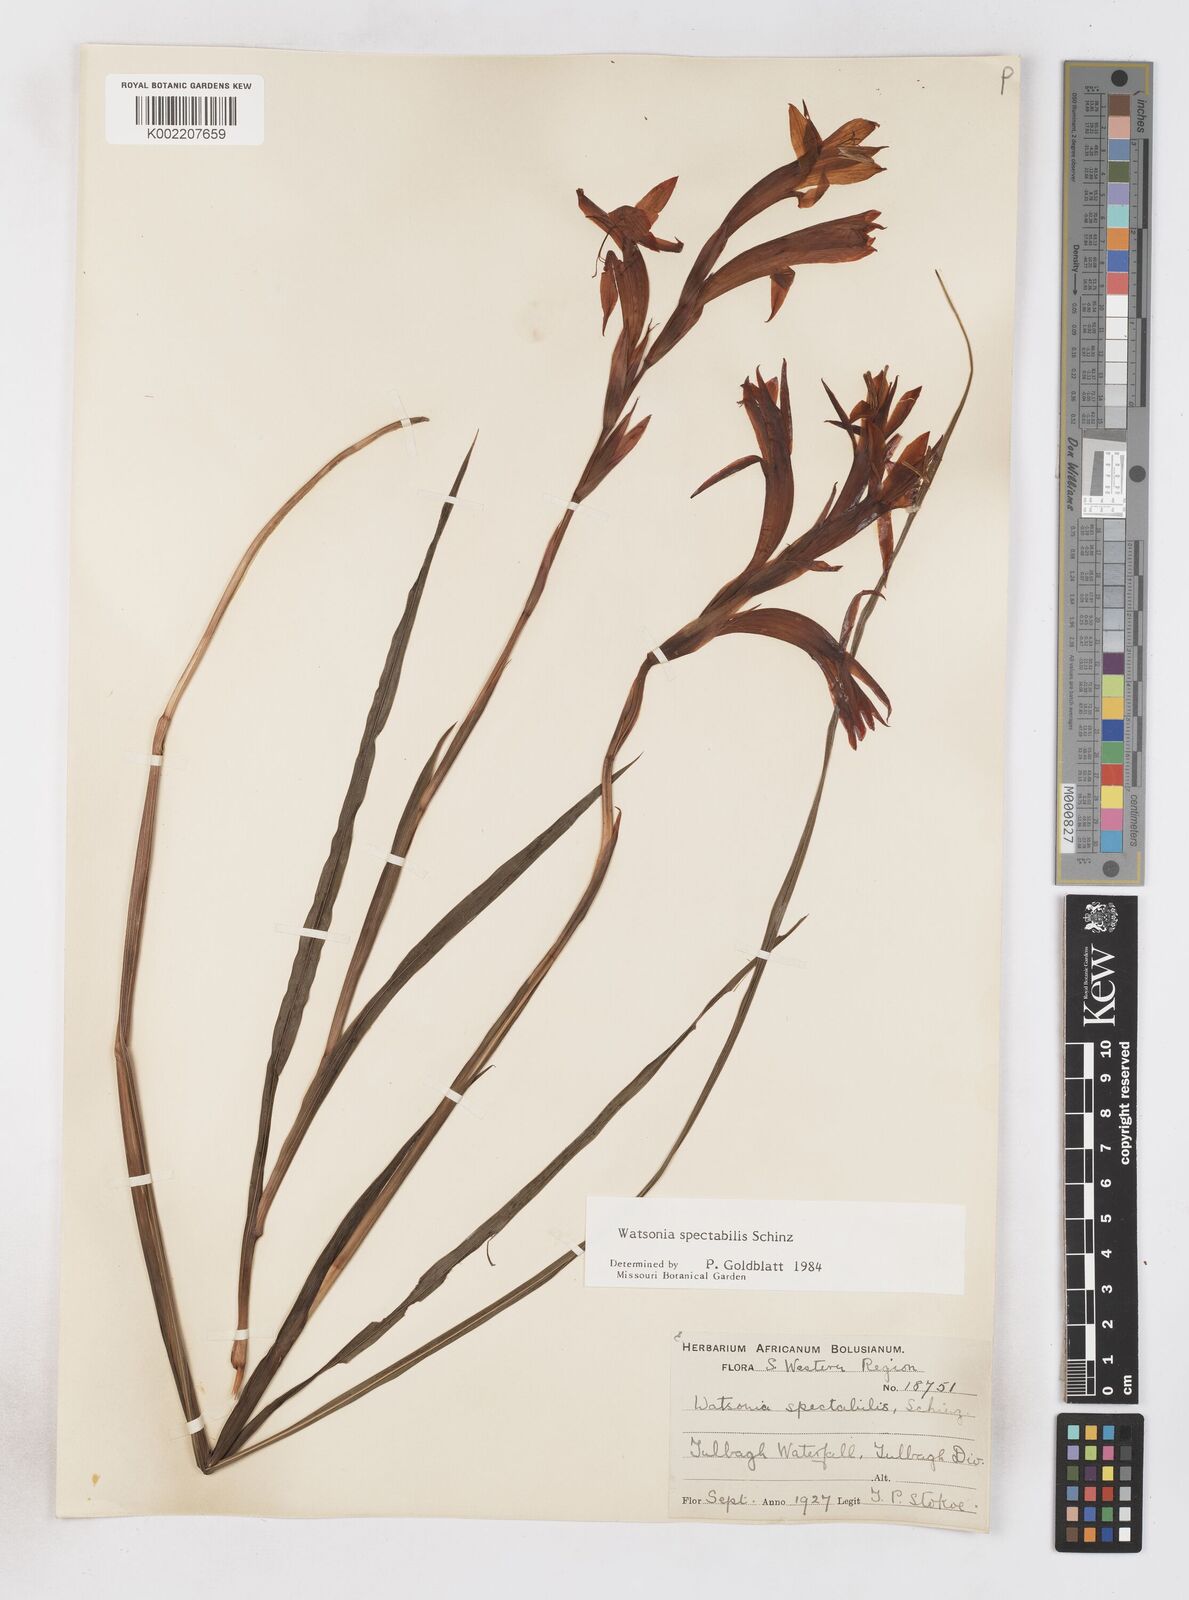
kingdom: Plantae
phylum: Tracheophyta
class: Liliopsida
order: Asparagales
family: Iridaceae
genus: Watsonia
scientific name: Watsonia spectabilis
